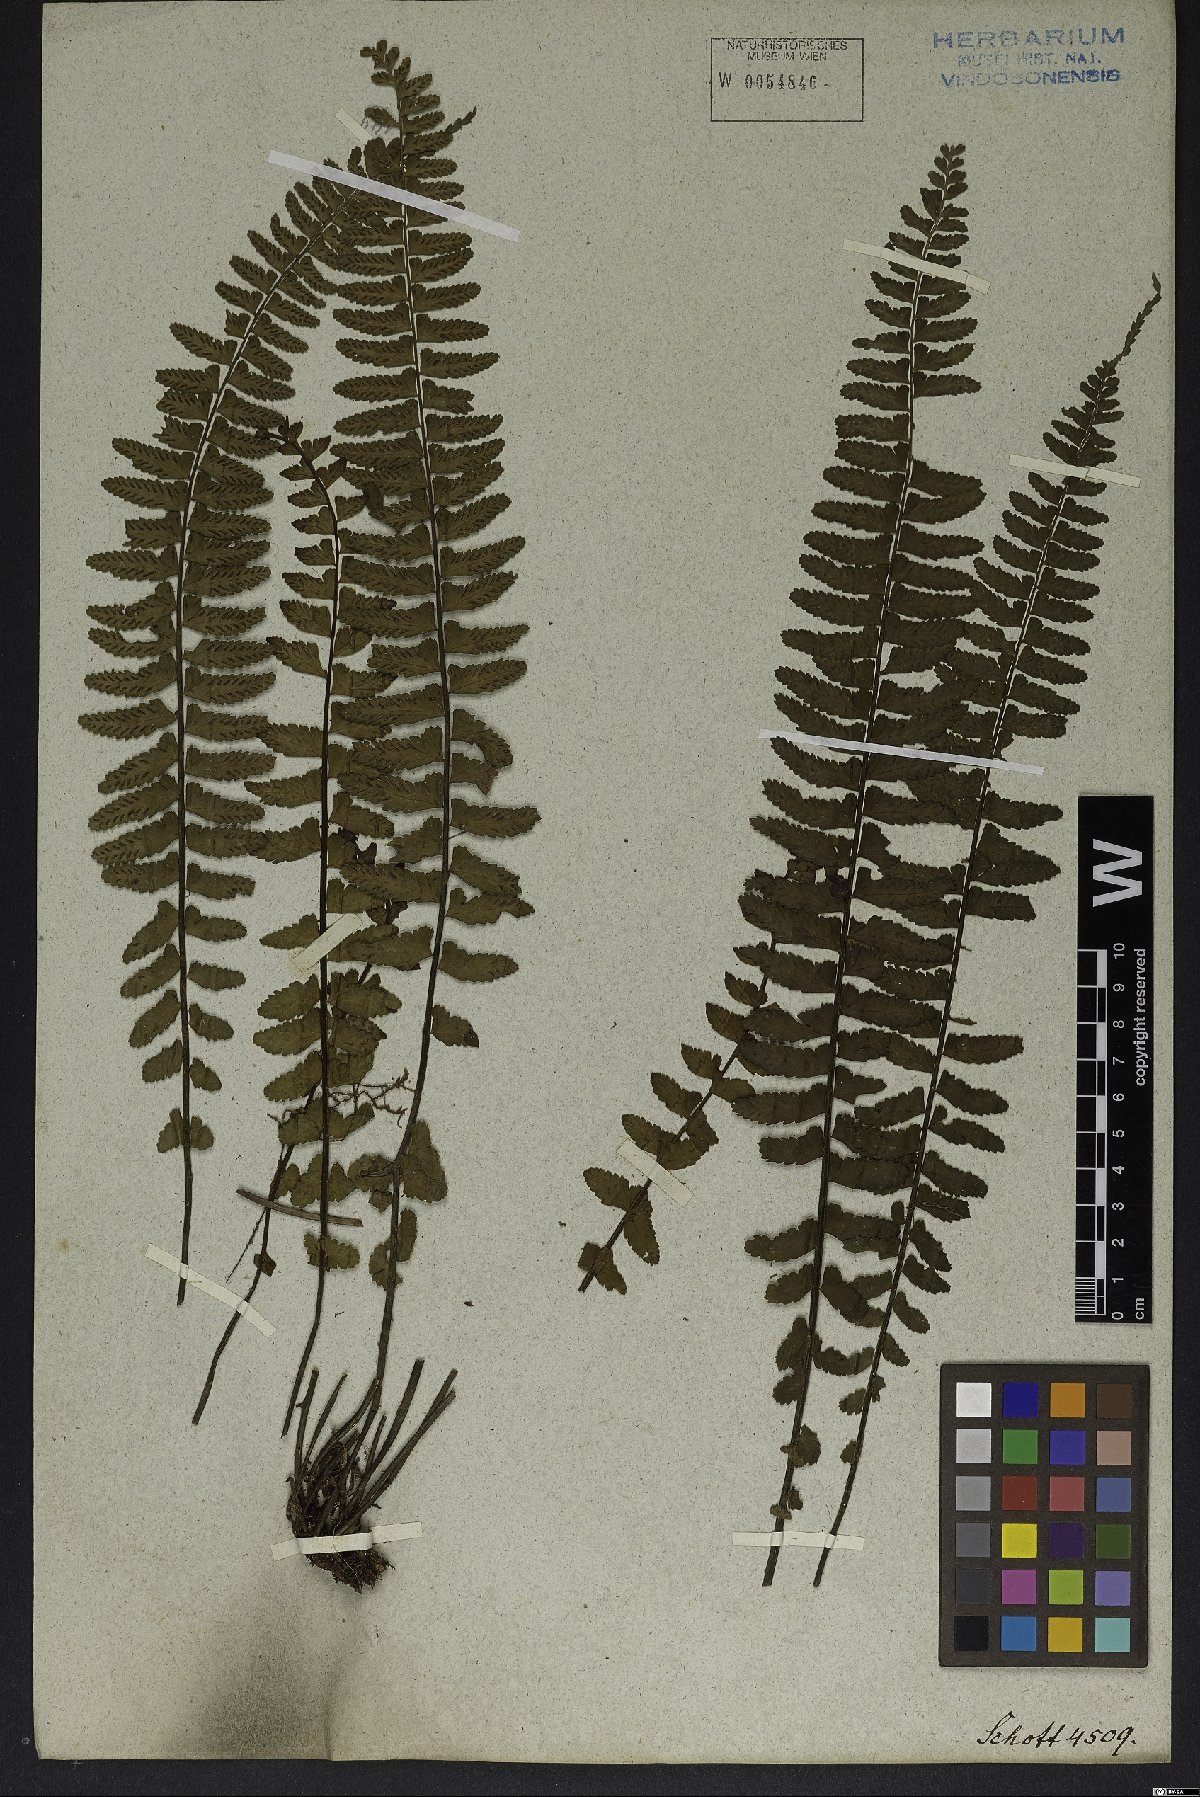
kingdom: Plantae
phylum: Tracheophyta
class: Polypodiopsida
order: Polypodiales
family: Aspleniaceae
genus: Asplenium
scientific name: Asplenium lunulatum
